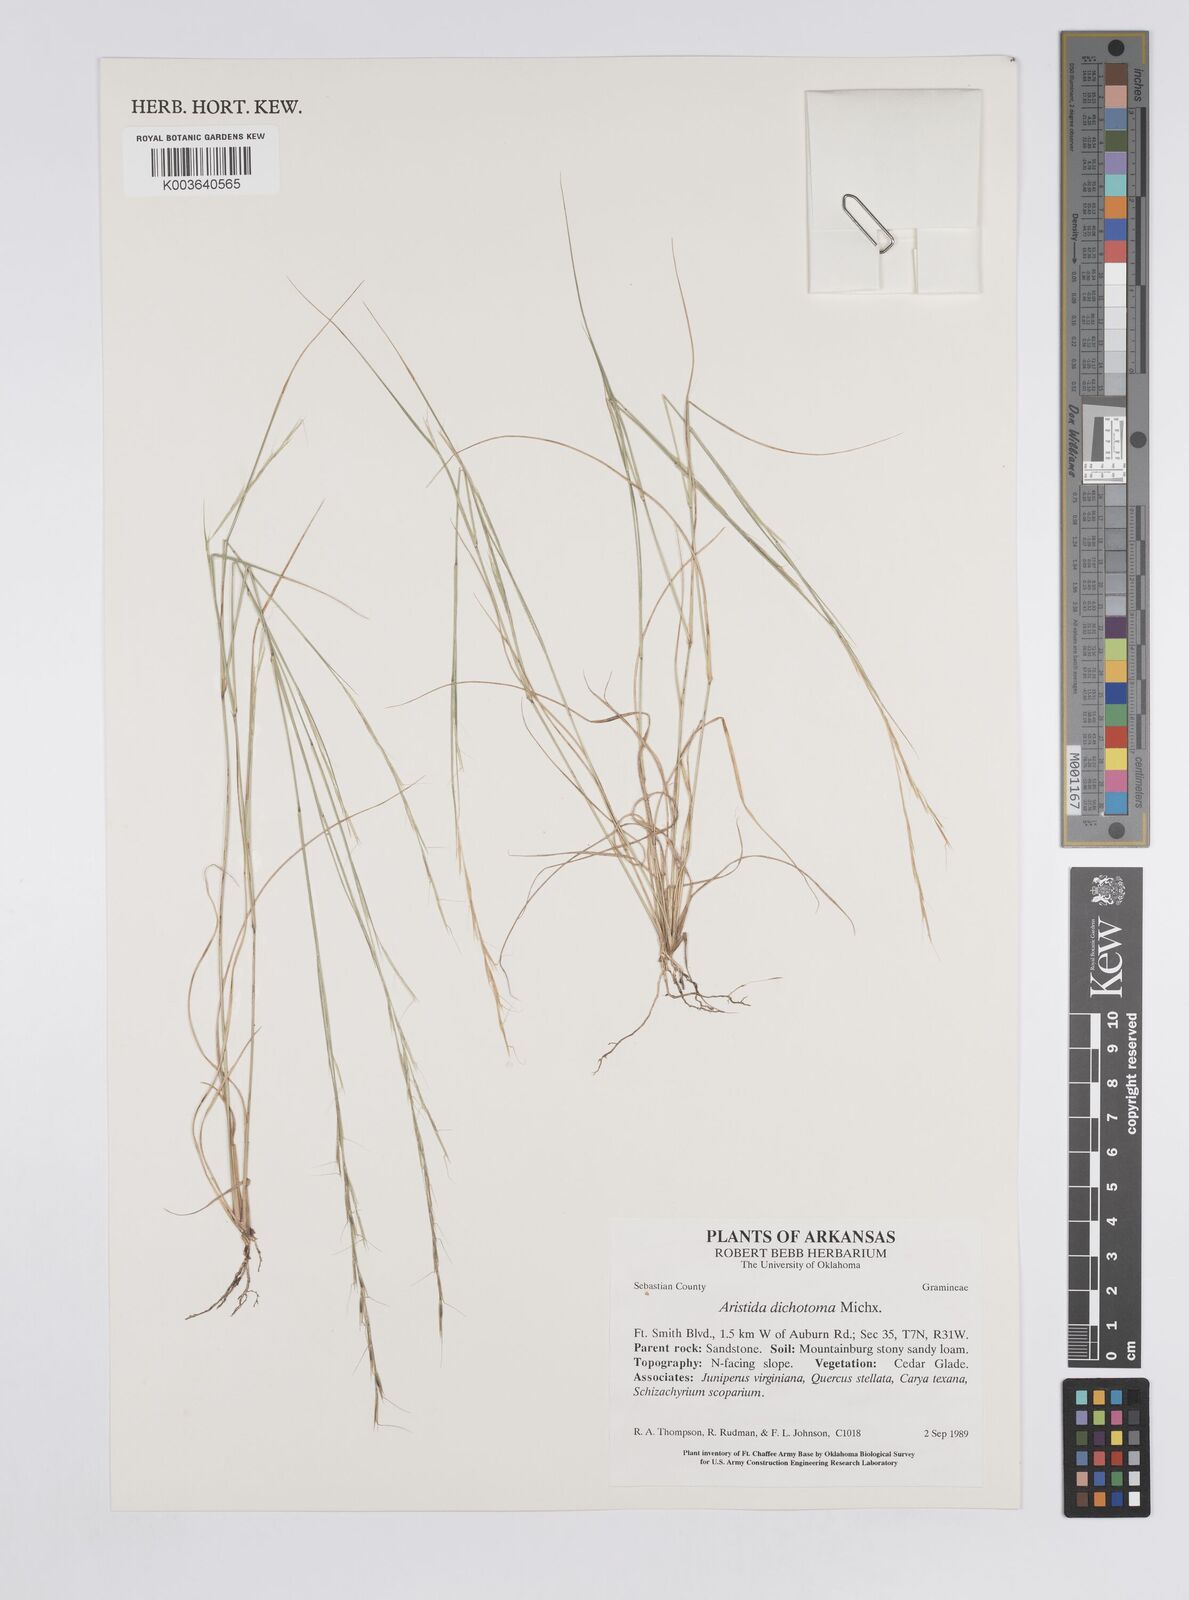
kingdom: Plantae
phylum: Tracheophyta
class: Liliopsida
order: Poales
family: Poaceae
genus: Aristida
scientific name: Aristida dichotoma
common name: Churchmouse three-awn
